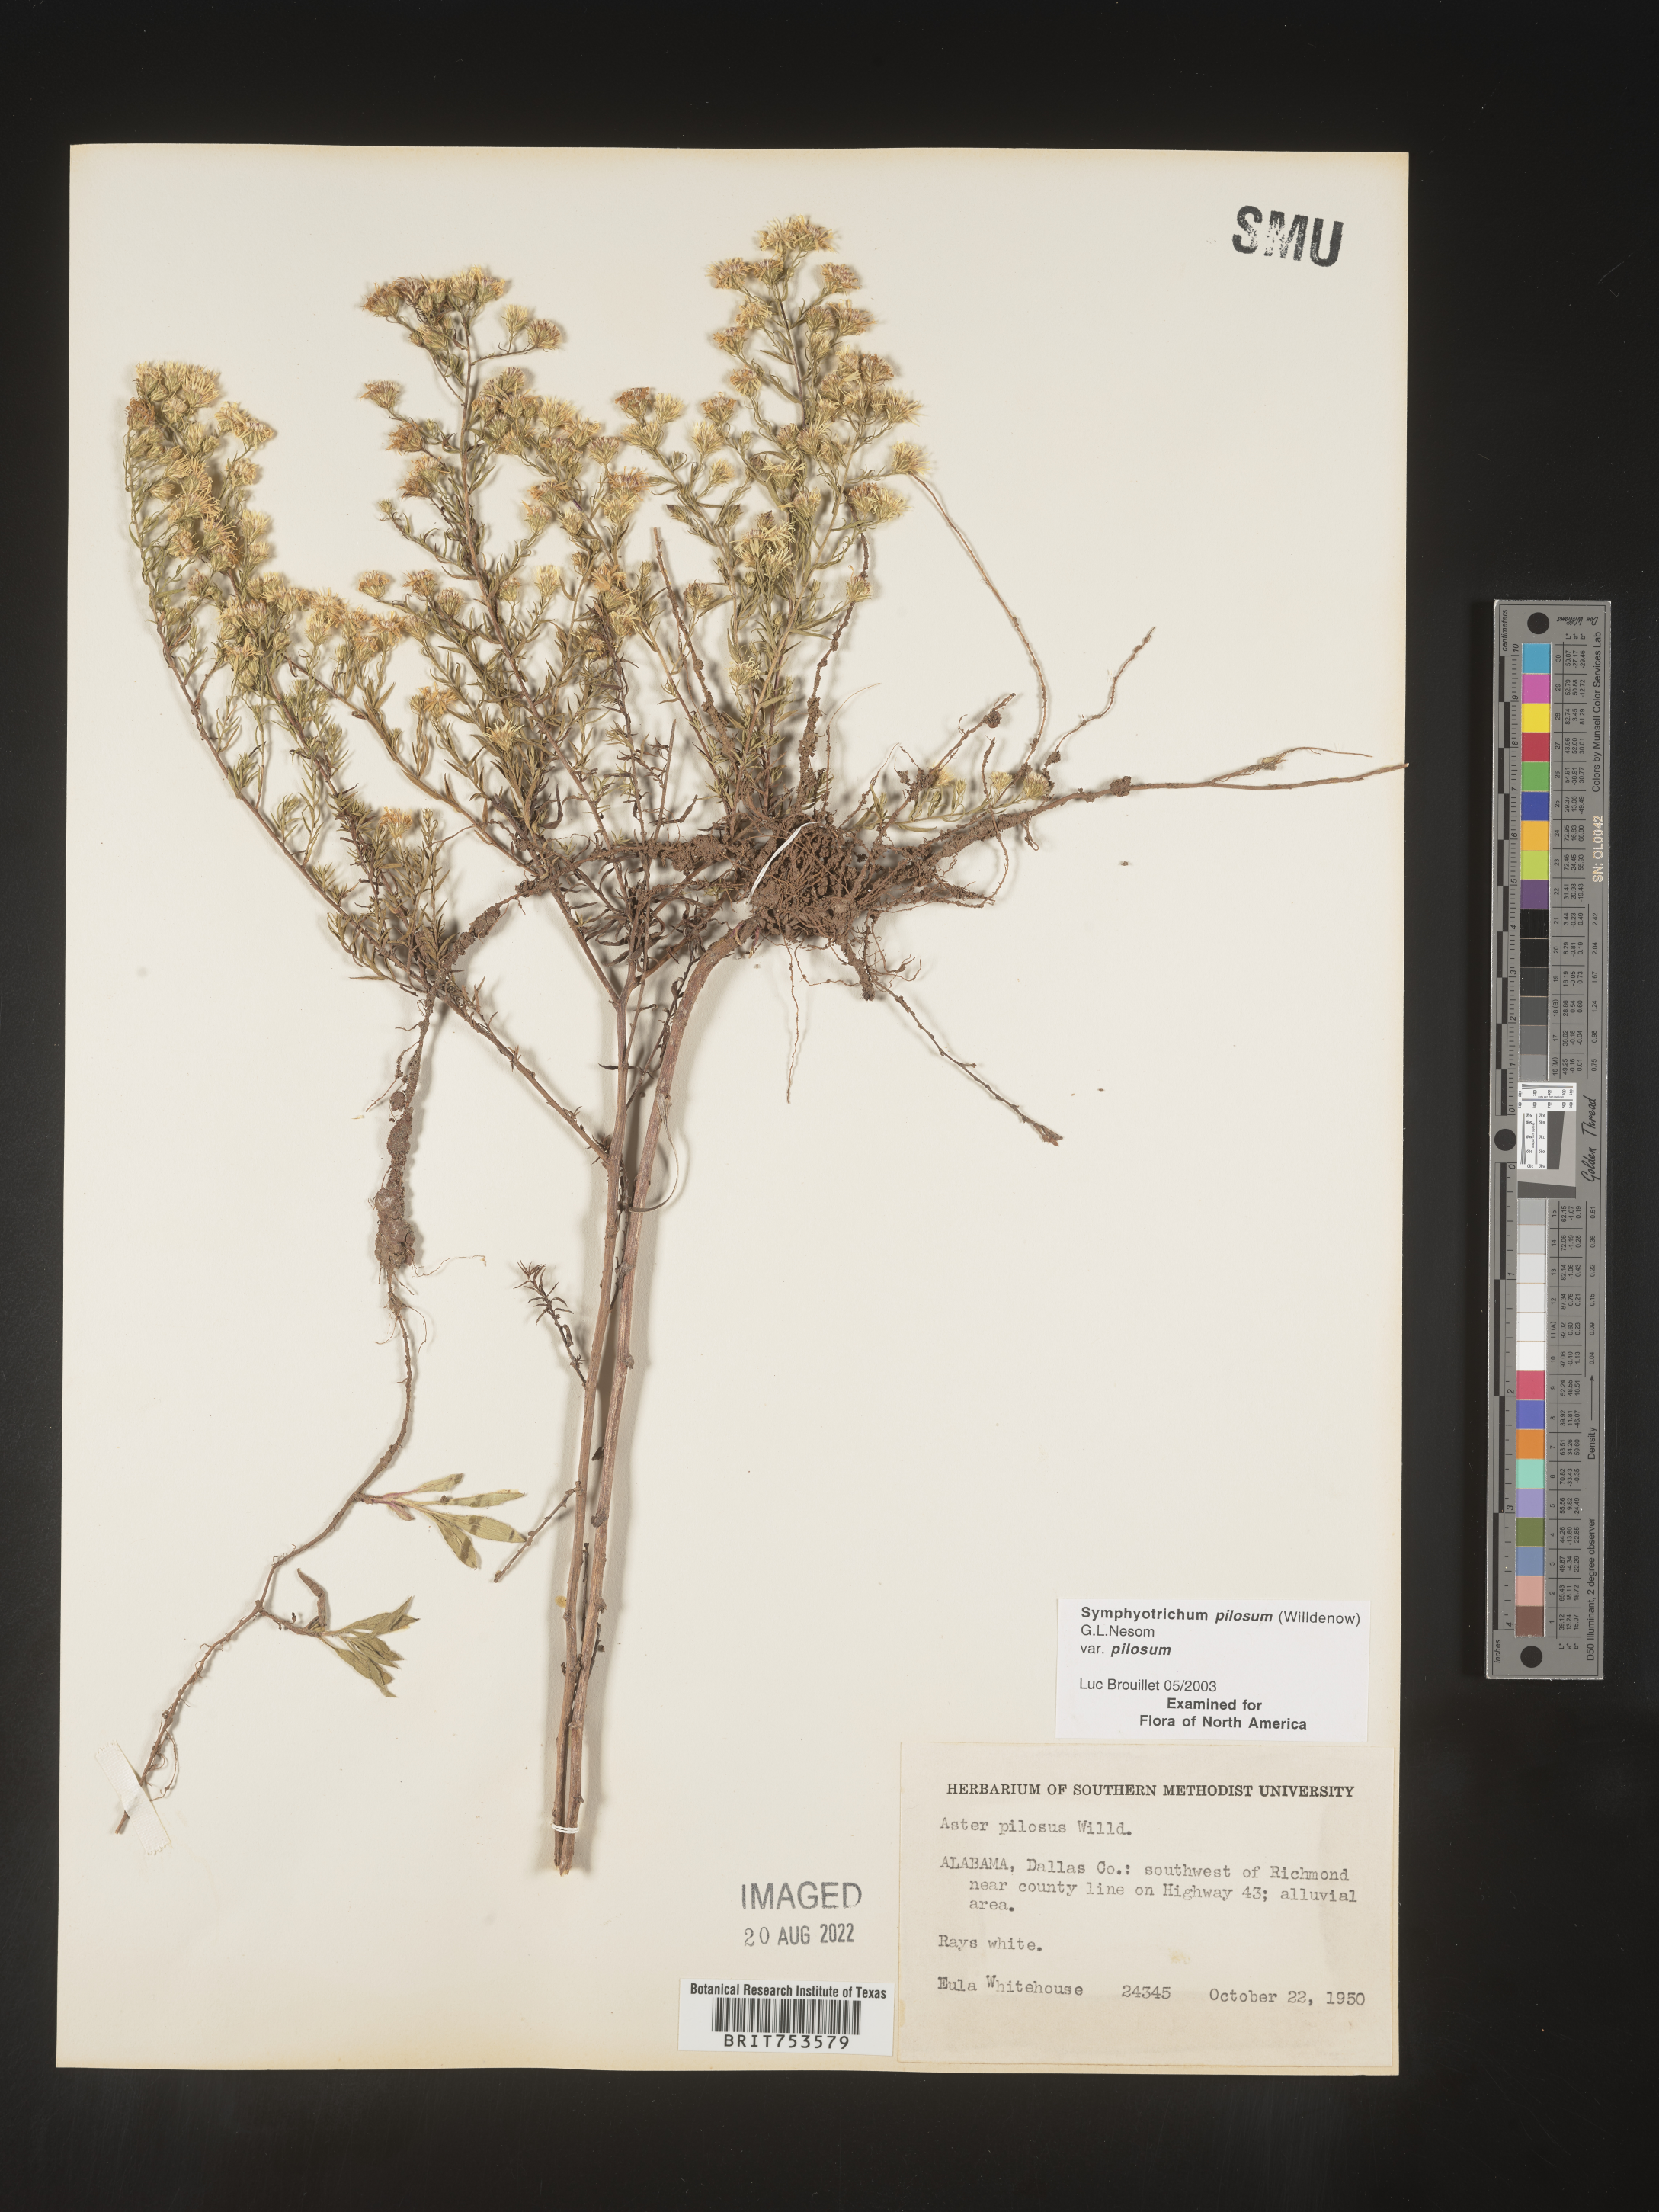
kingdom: Plantae
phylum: Tracheophyta
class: Magnoliopsida
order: Asterales
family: Asteraceae
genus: Symphyotrichum
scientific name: Symphyotrichum pilosum
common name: Awl aster
